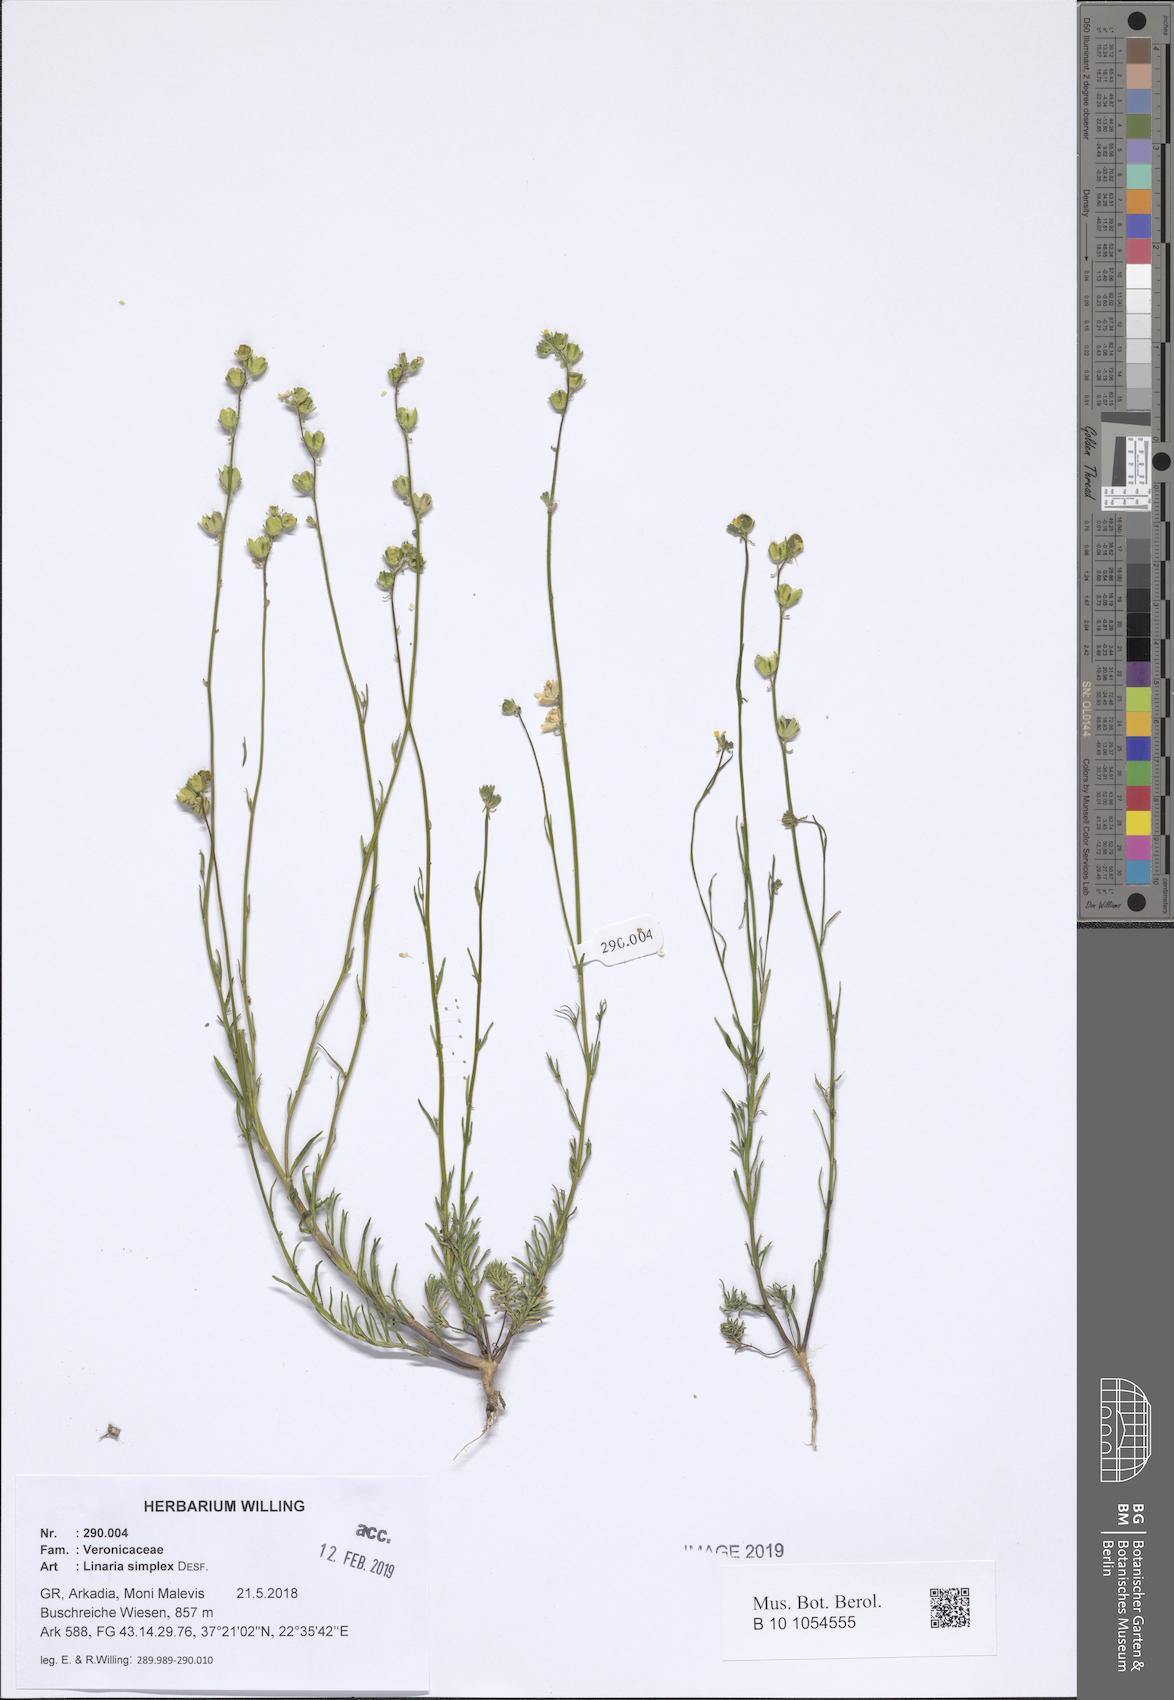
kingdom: Plantae
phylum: Tracheophyta
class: Magnoliopsida
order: Lamiales
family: Plantaginaceae
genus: Linaria
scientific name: Linaria simplex
